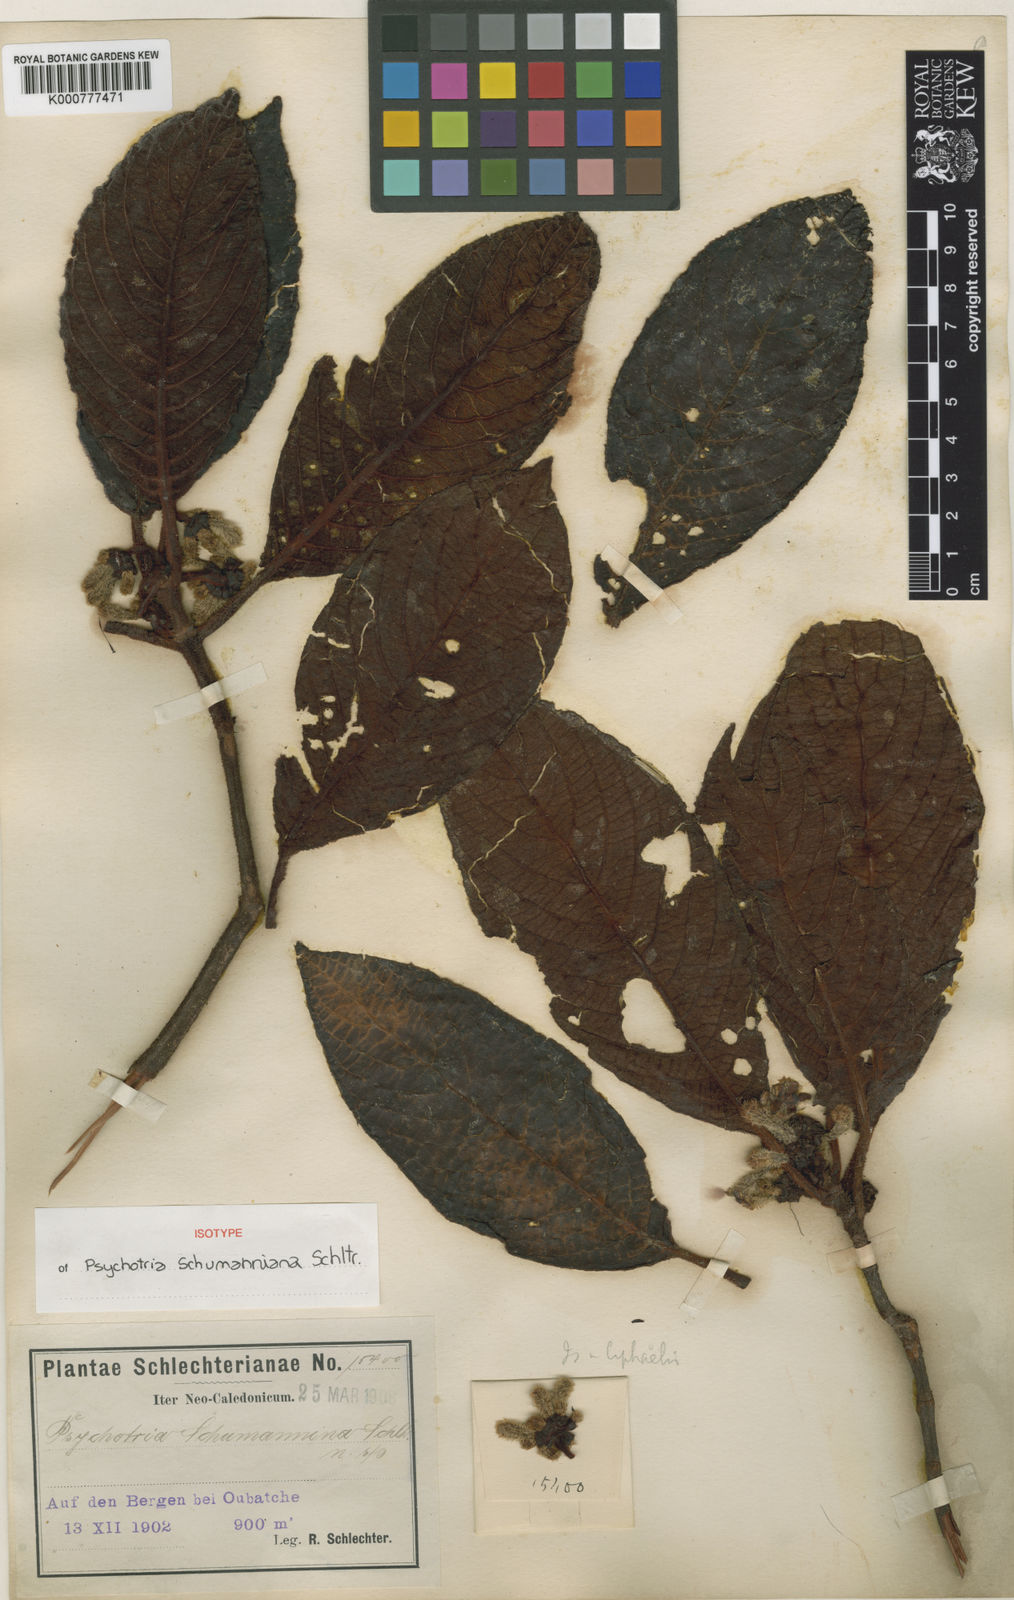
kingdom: Plantae
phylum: Tracheophyta
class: Magnoliopsida
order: Gentianales
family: Rubiaceae
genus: Psychotria
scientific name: Psychotria schumanniana
